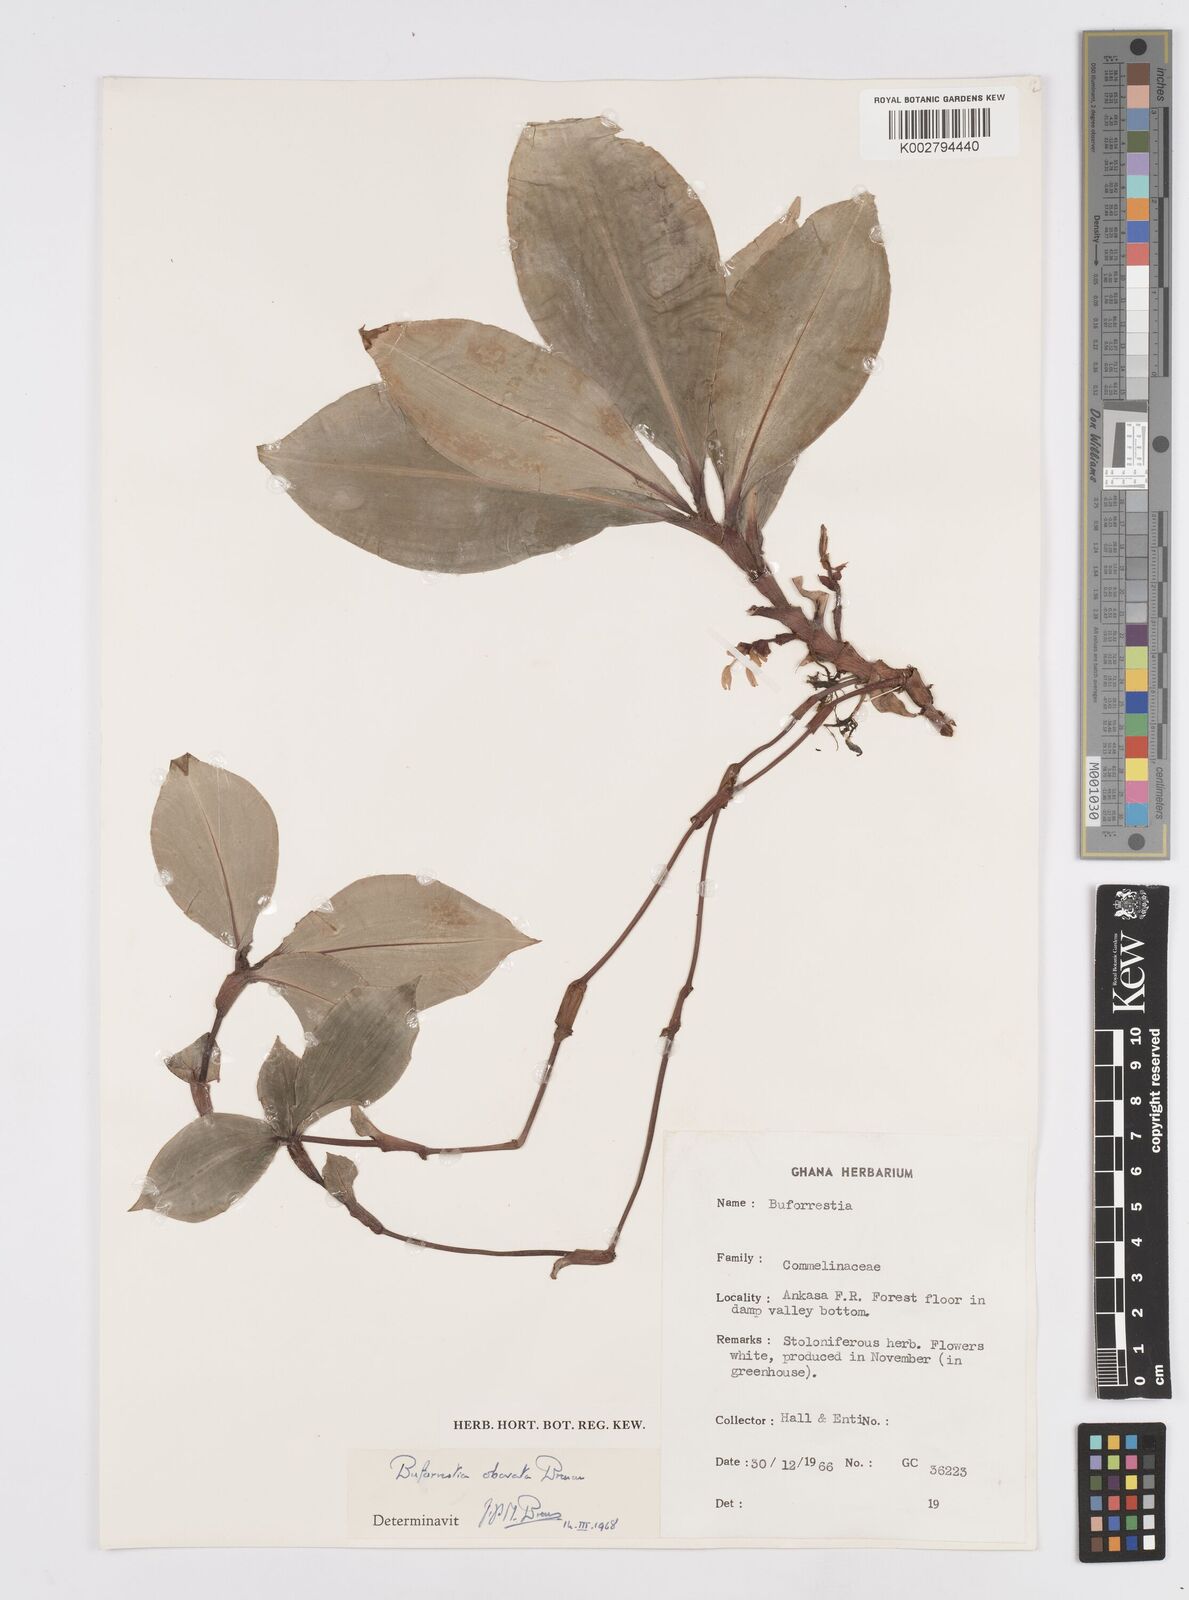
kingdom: Plantae
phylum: Tracheophyta
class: Liliopsida
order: Commelinales
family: Commelinaceae
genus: Buforrestia
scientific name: Buforrestia obovata
